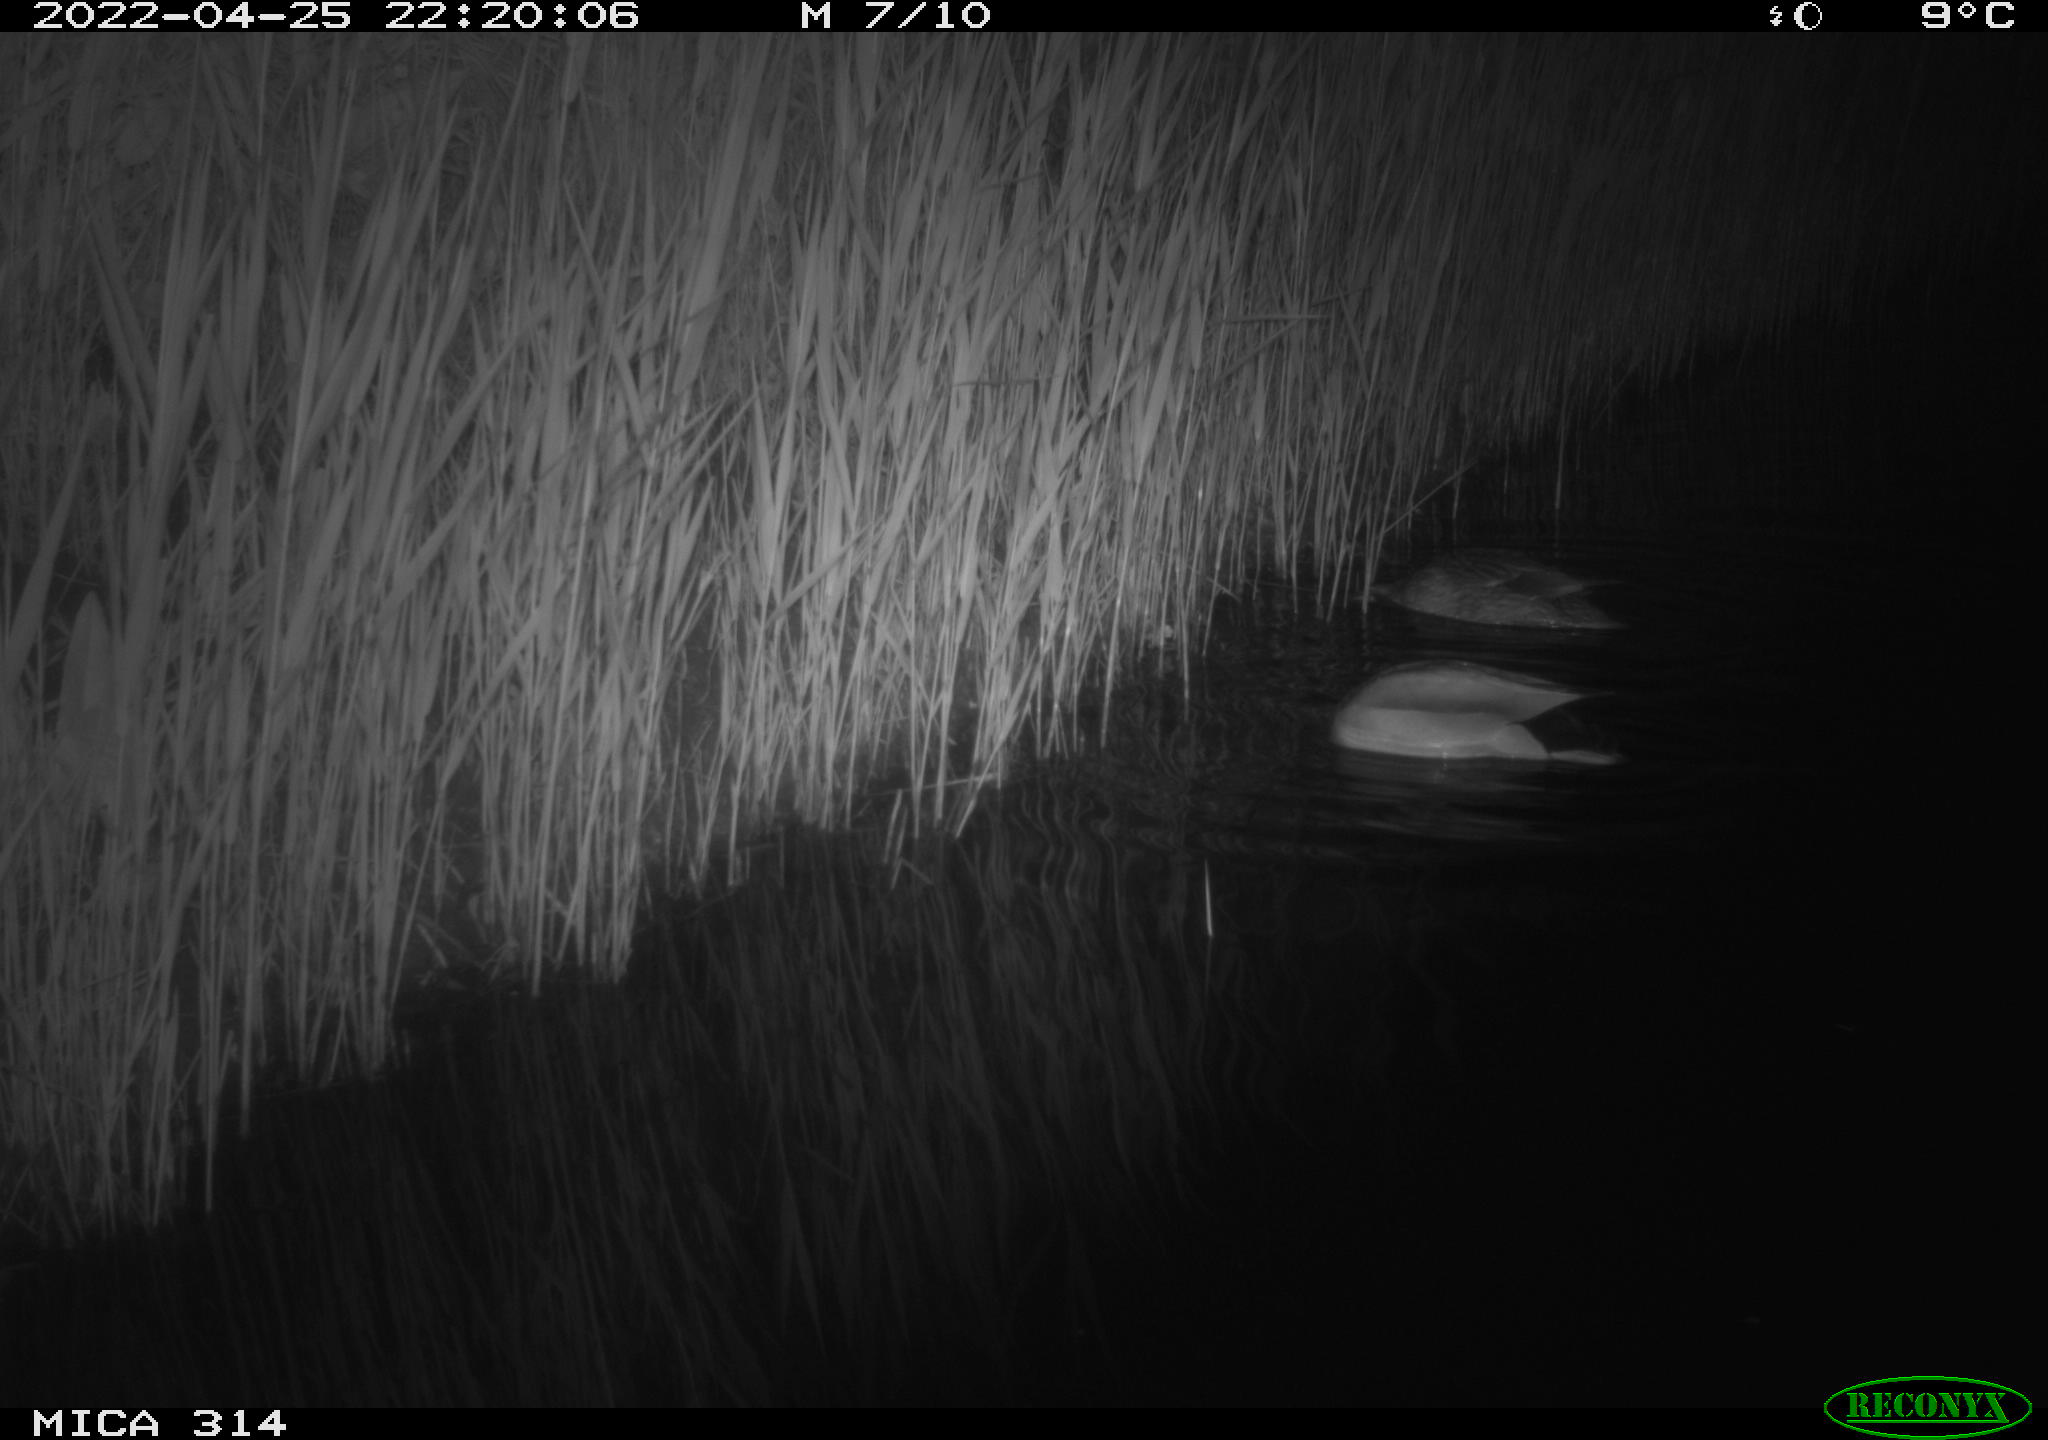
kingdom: Animalia
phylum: Chordata
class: Aves
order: Anseriformes
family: Anatidae
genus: Anas
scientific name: Anas platyrhynchos
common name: Mallard
